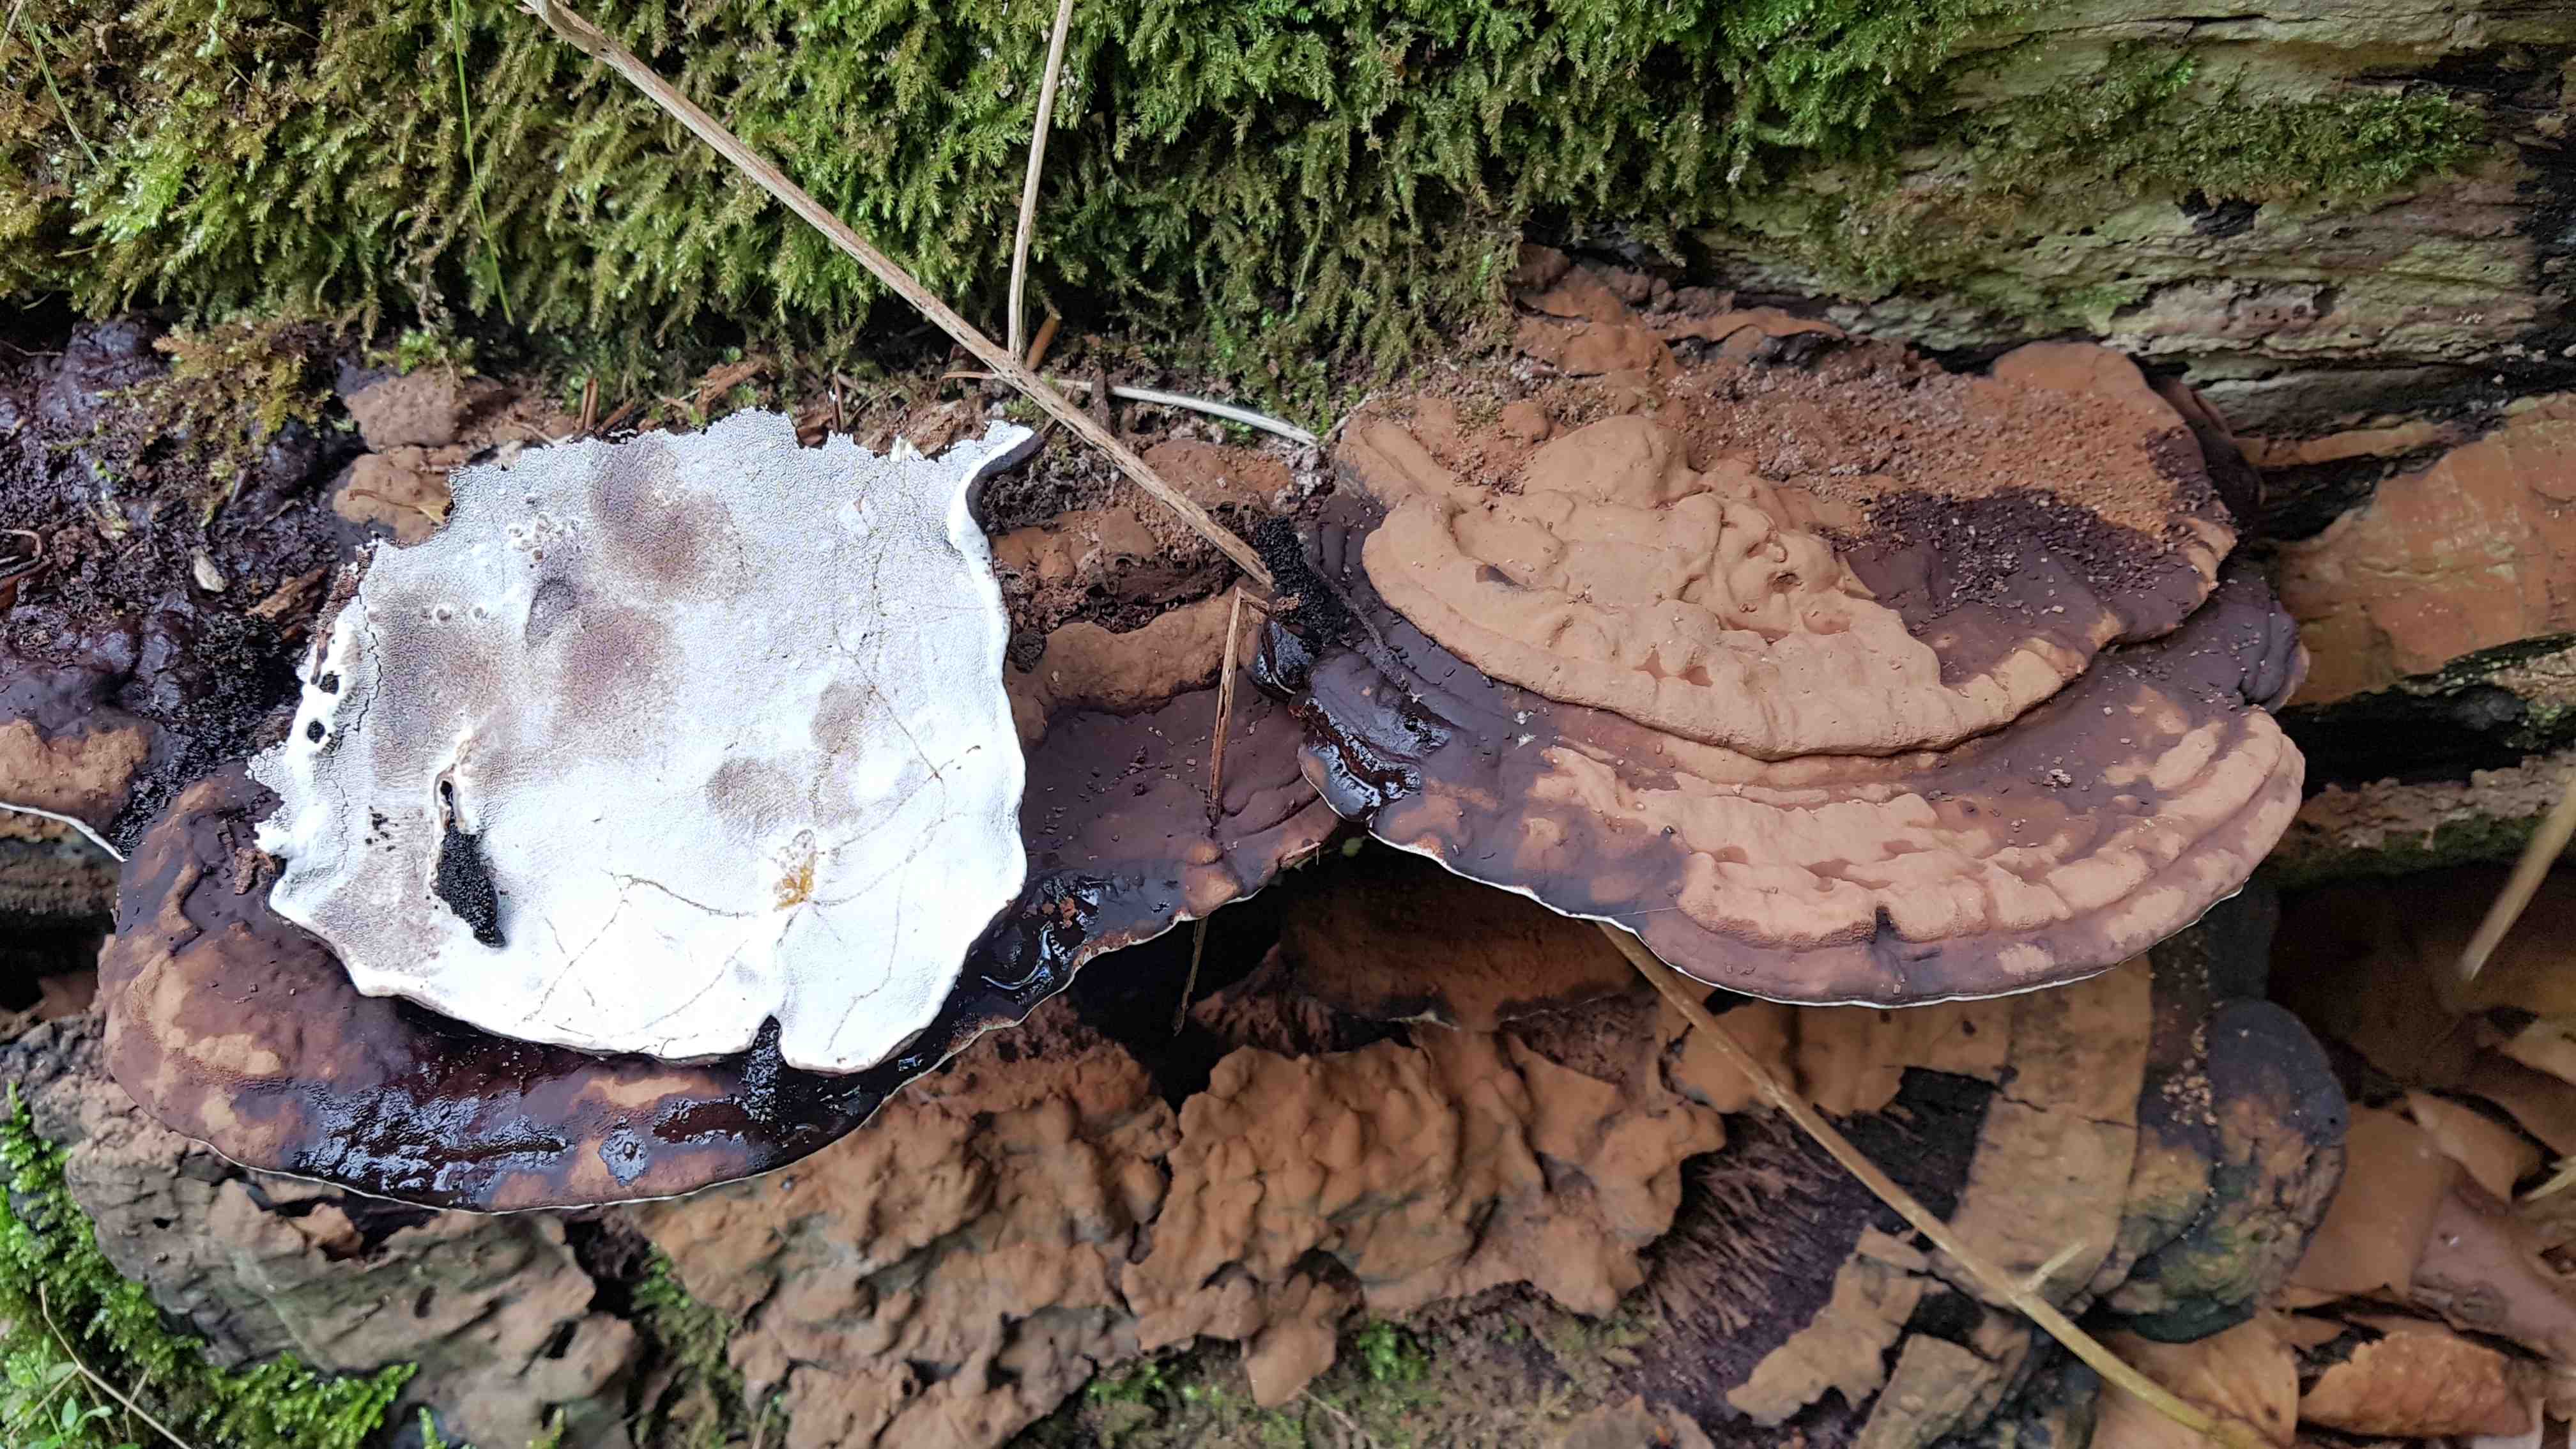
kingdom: Fungi
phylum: Basidiomycota
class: Agaricomycetes
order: Polyporales
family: Polyporaceae
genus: Ganoderma
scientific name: Ganoderma applanatum
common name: flad lakporesvamp
